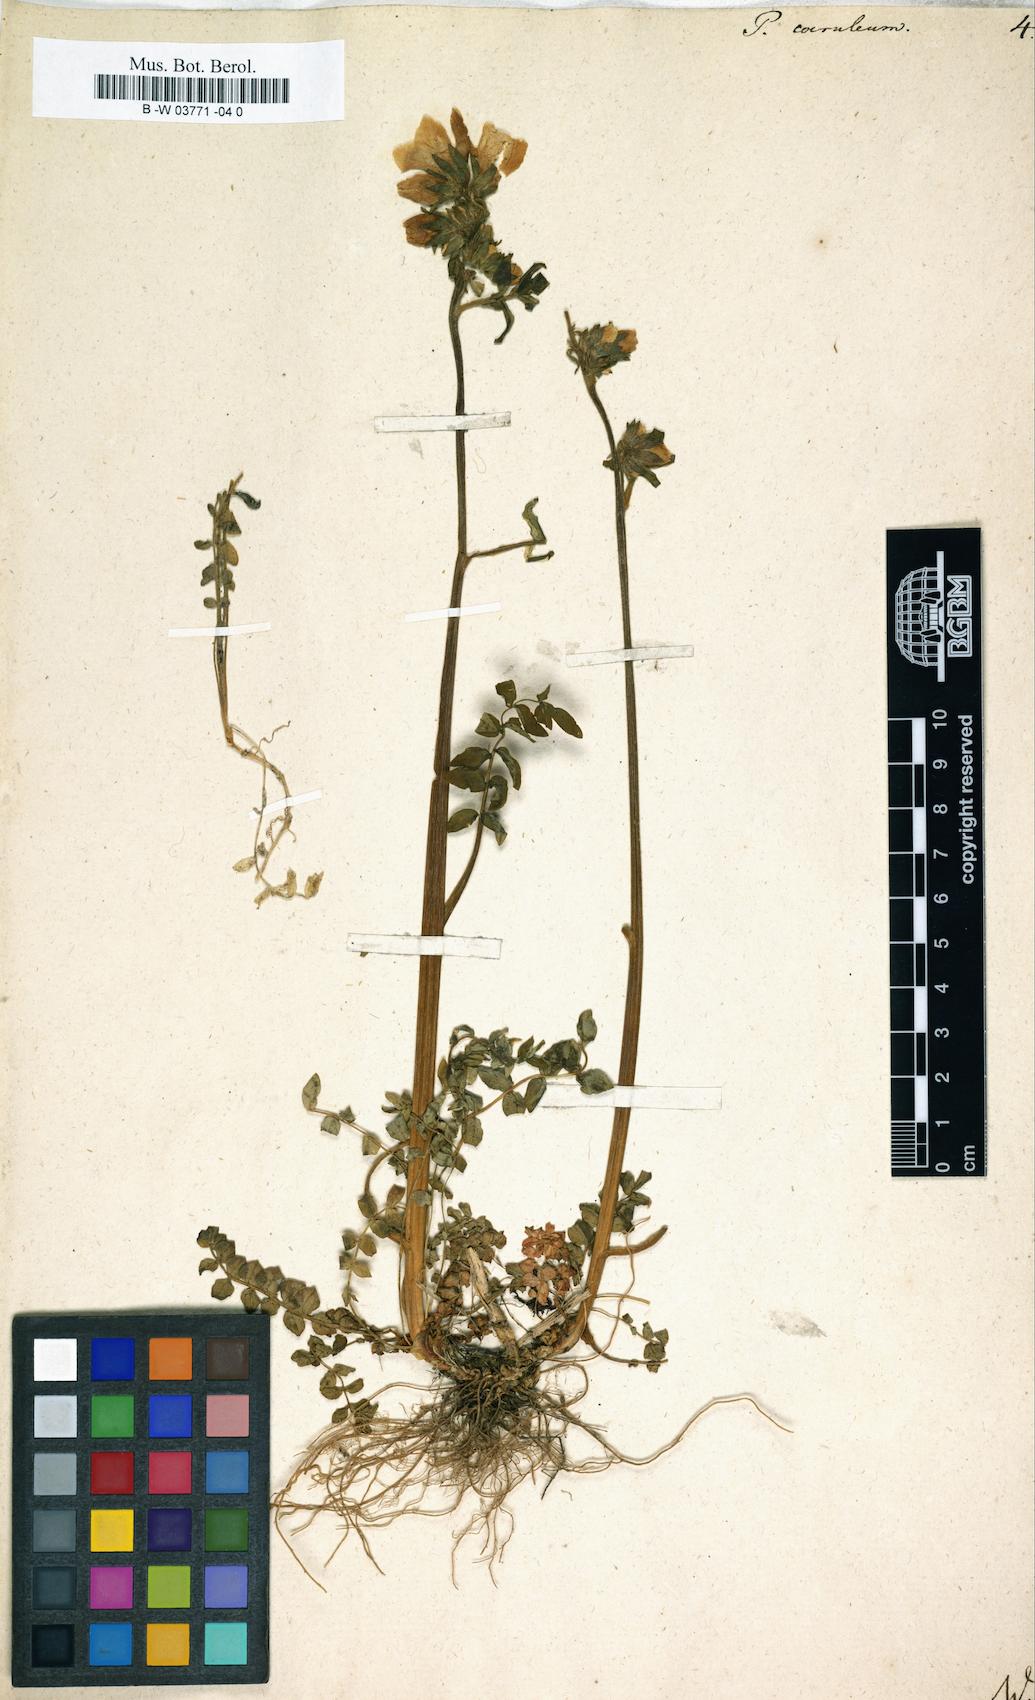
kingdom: Plantae
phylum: Tracheophyta
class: Magnoliopsida
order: Ericales
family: Polemoniaceae
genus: Polemonium
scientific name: Polemonium caeruleum
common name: Jacob's-ladder
